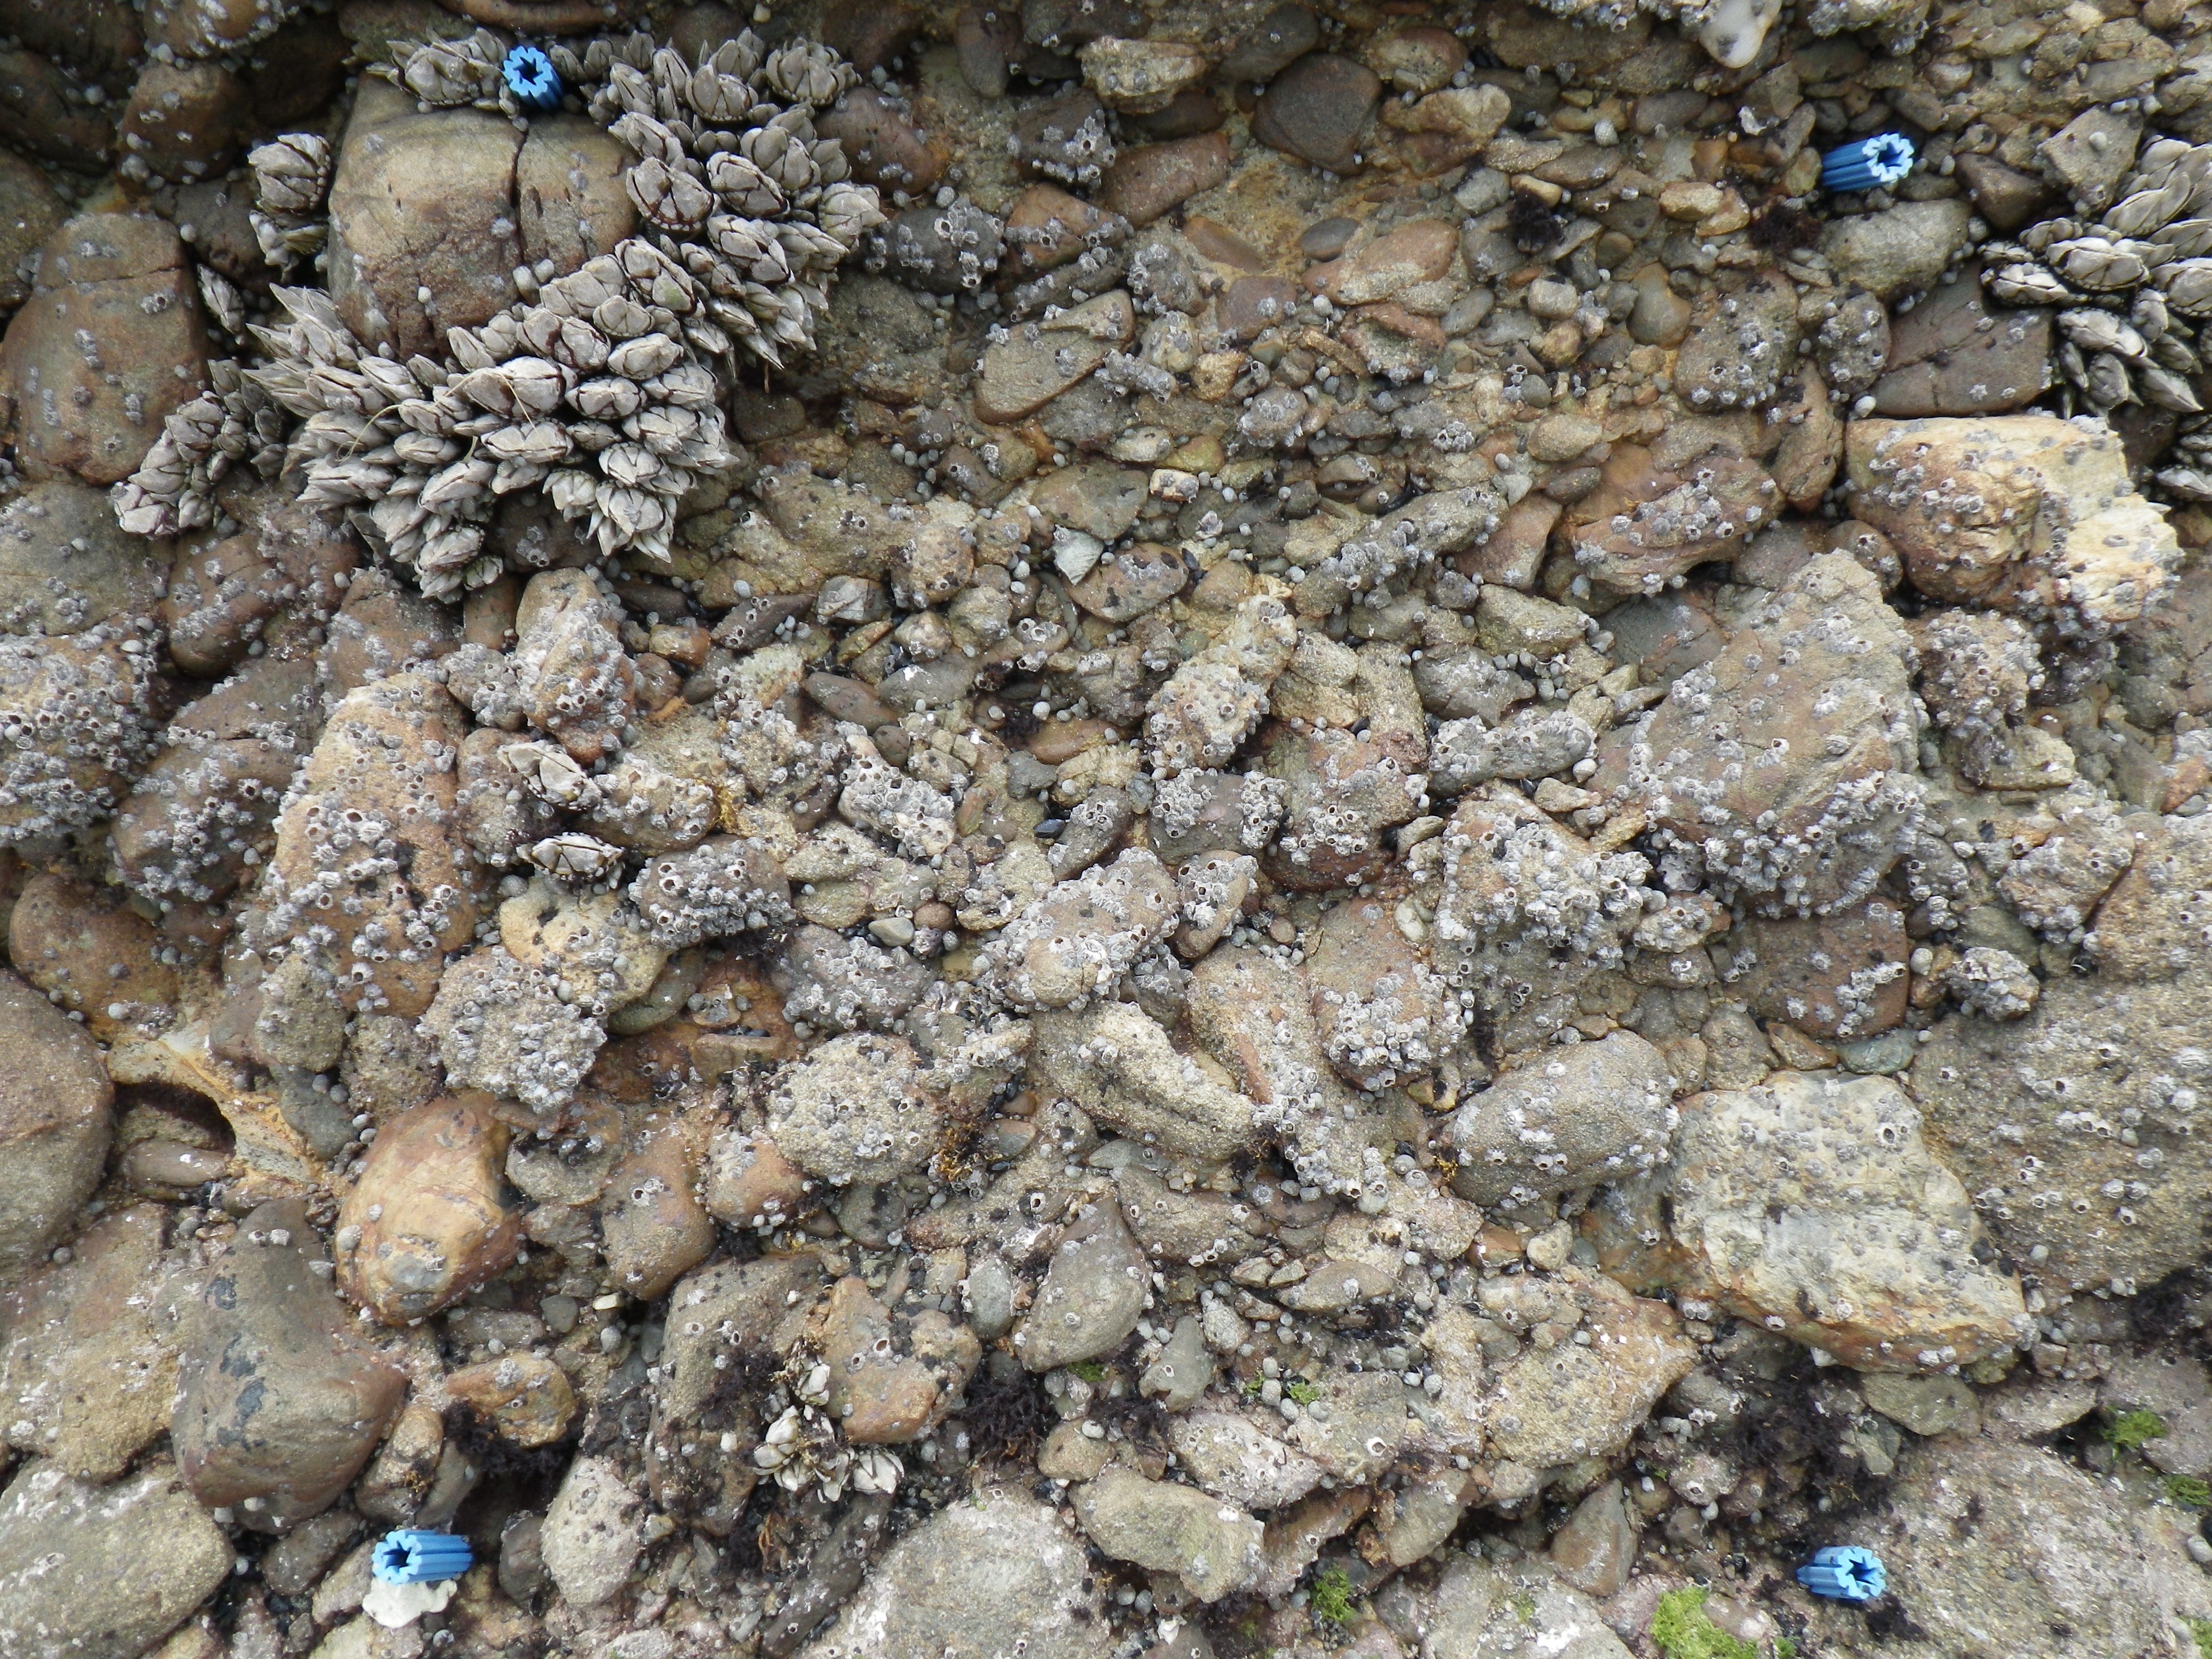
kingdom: Animalia
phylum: Arthropoda
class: Maxillopoda
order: Sessilia
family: Chthamalidae
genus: Chthamalus
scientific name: Chthamalus challengeri
